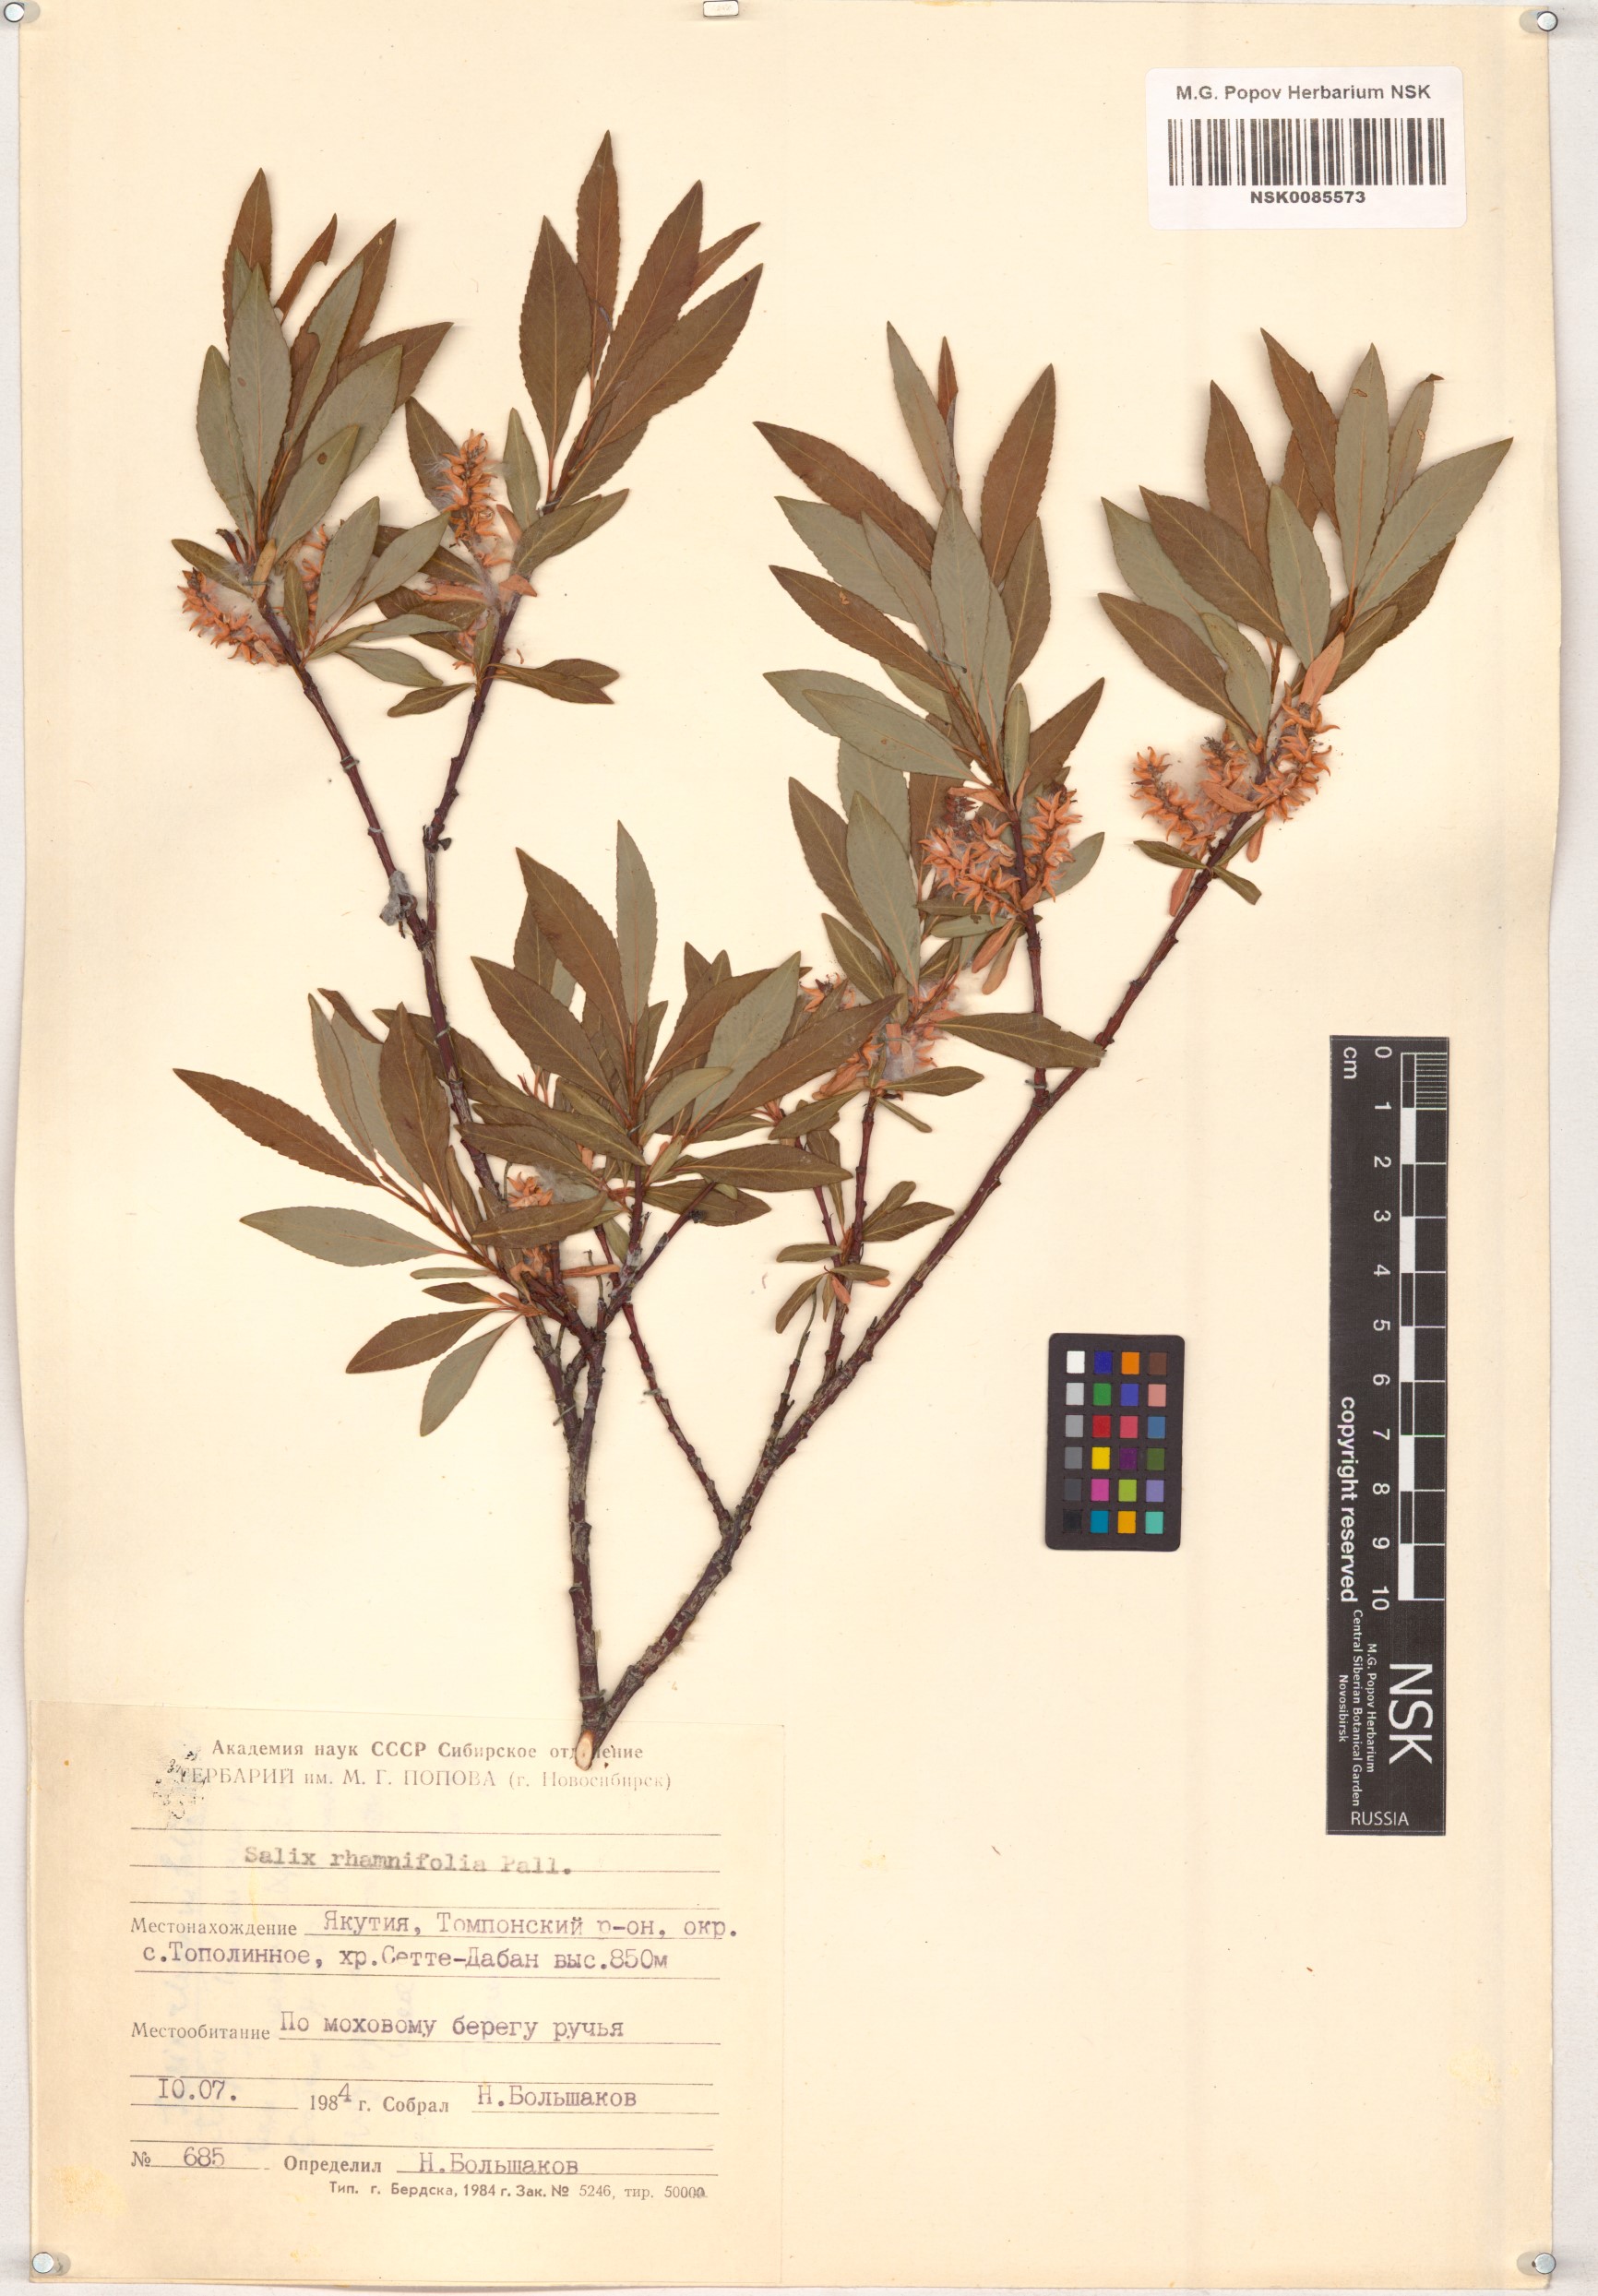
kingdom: Plantae
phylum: Tracheophyta
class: Magnoliopsida
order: Malpighiales
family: Salicaceae
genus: Salix
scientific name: Salix rhamnifolia
